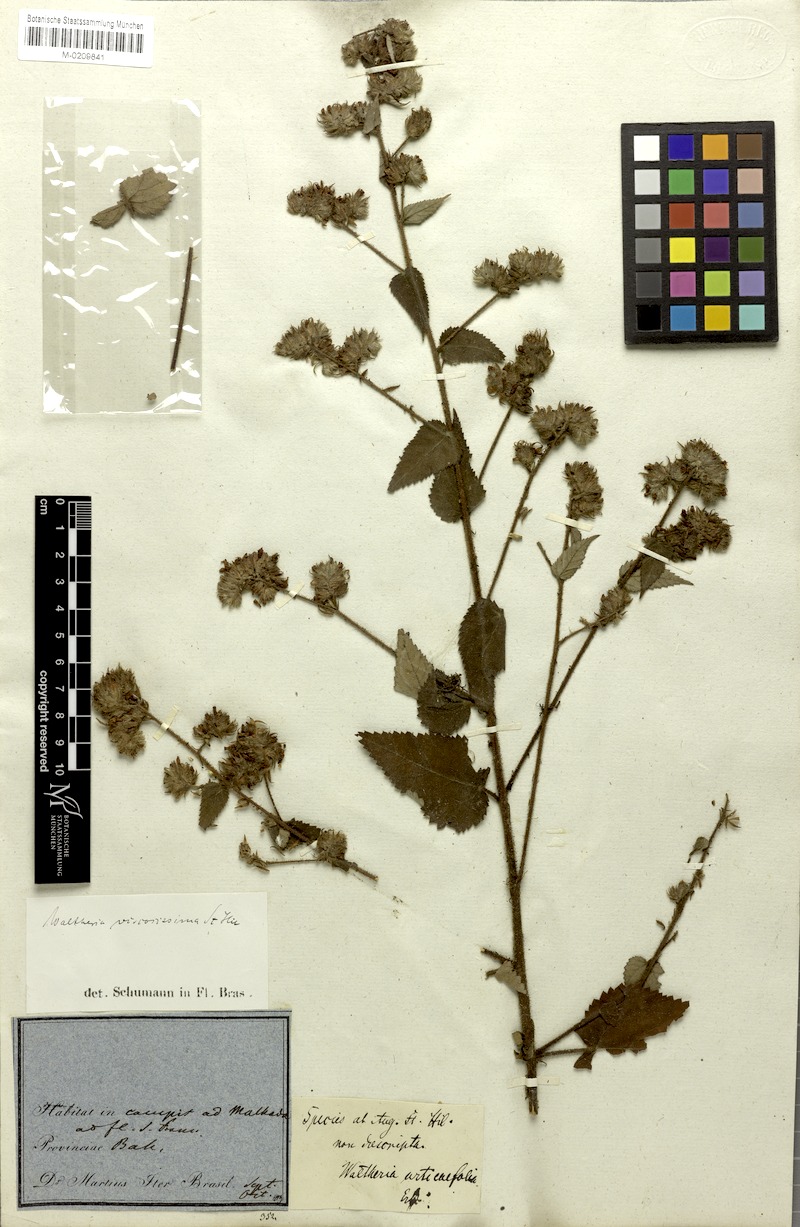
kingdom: Plantae
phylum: Tracheophyta
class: Magnoliopsida
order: Malvales
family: Malvaceae
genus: Waltheria
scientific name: Waltheria viscosissima
